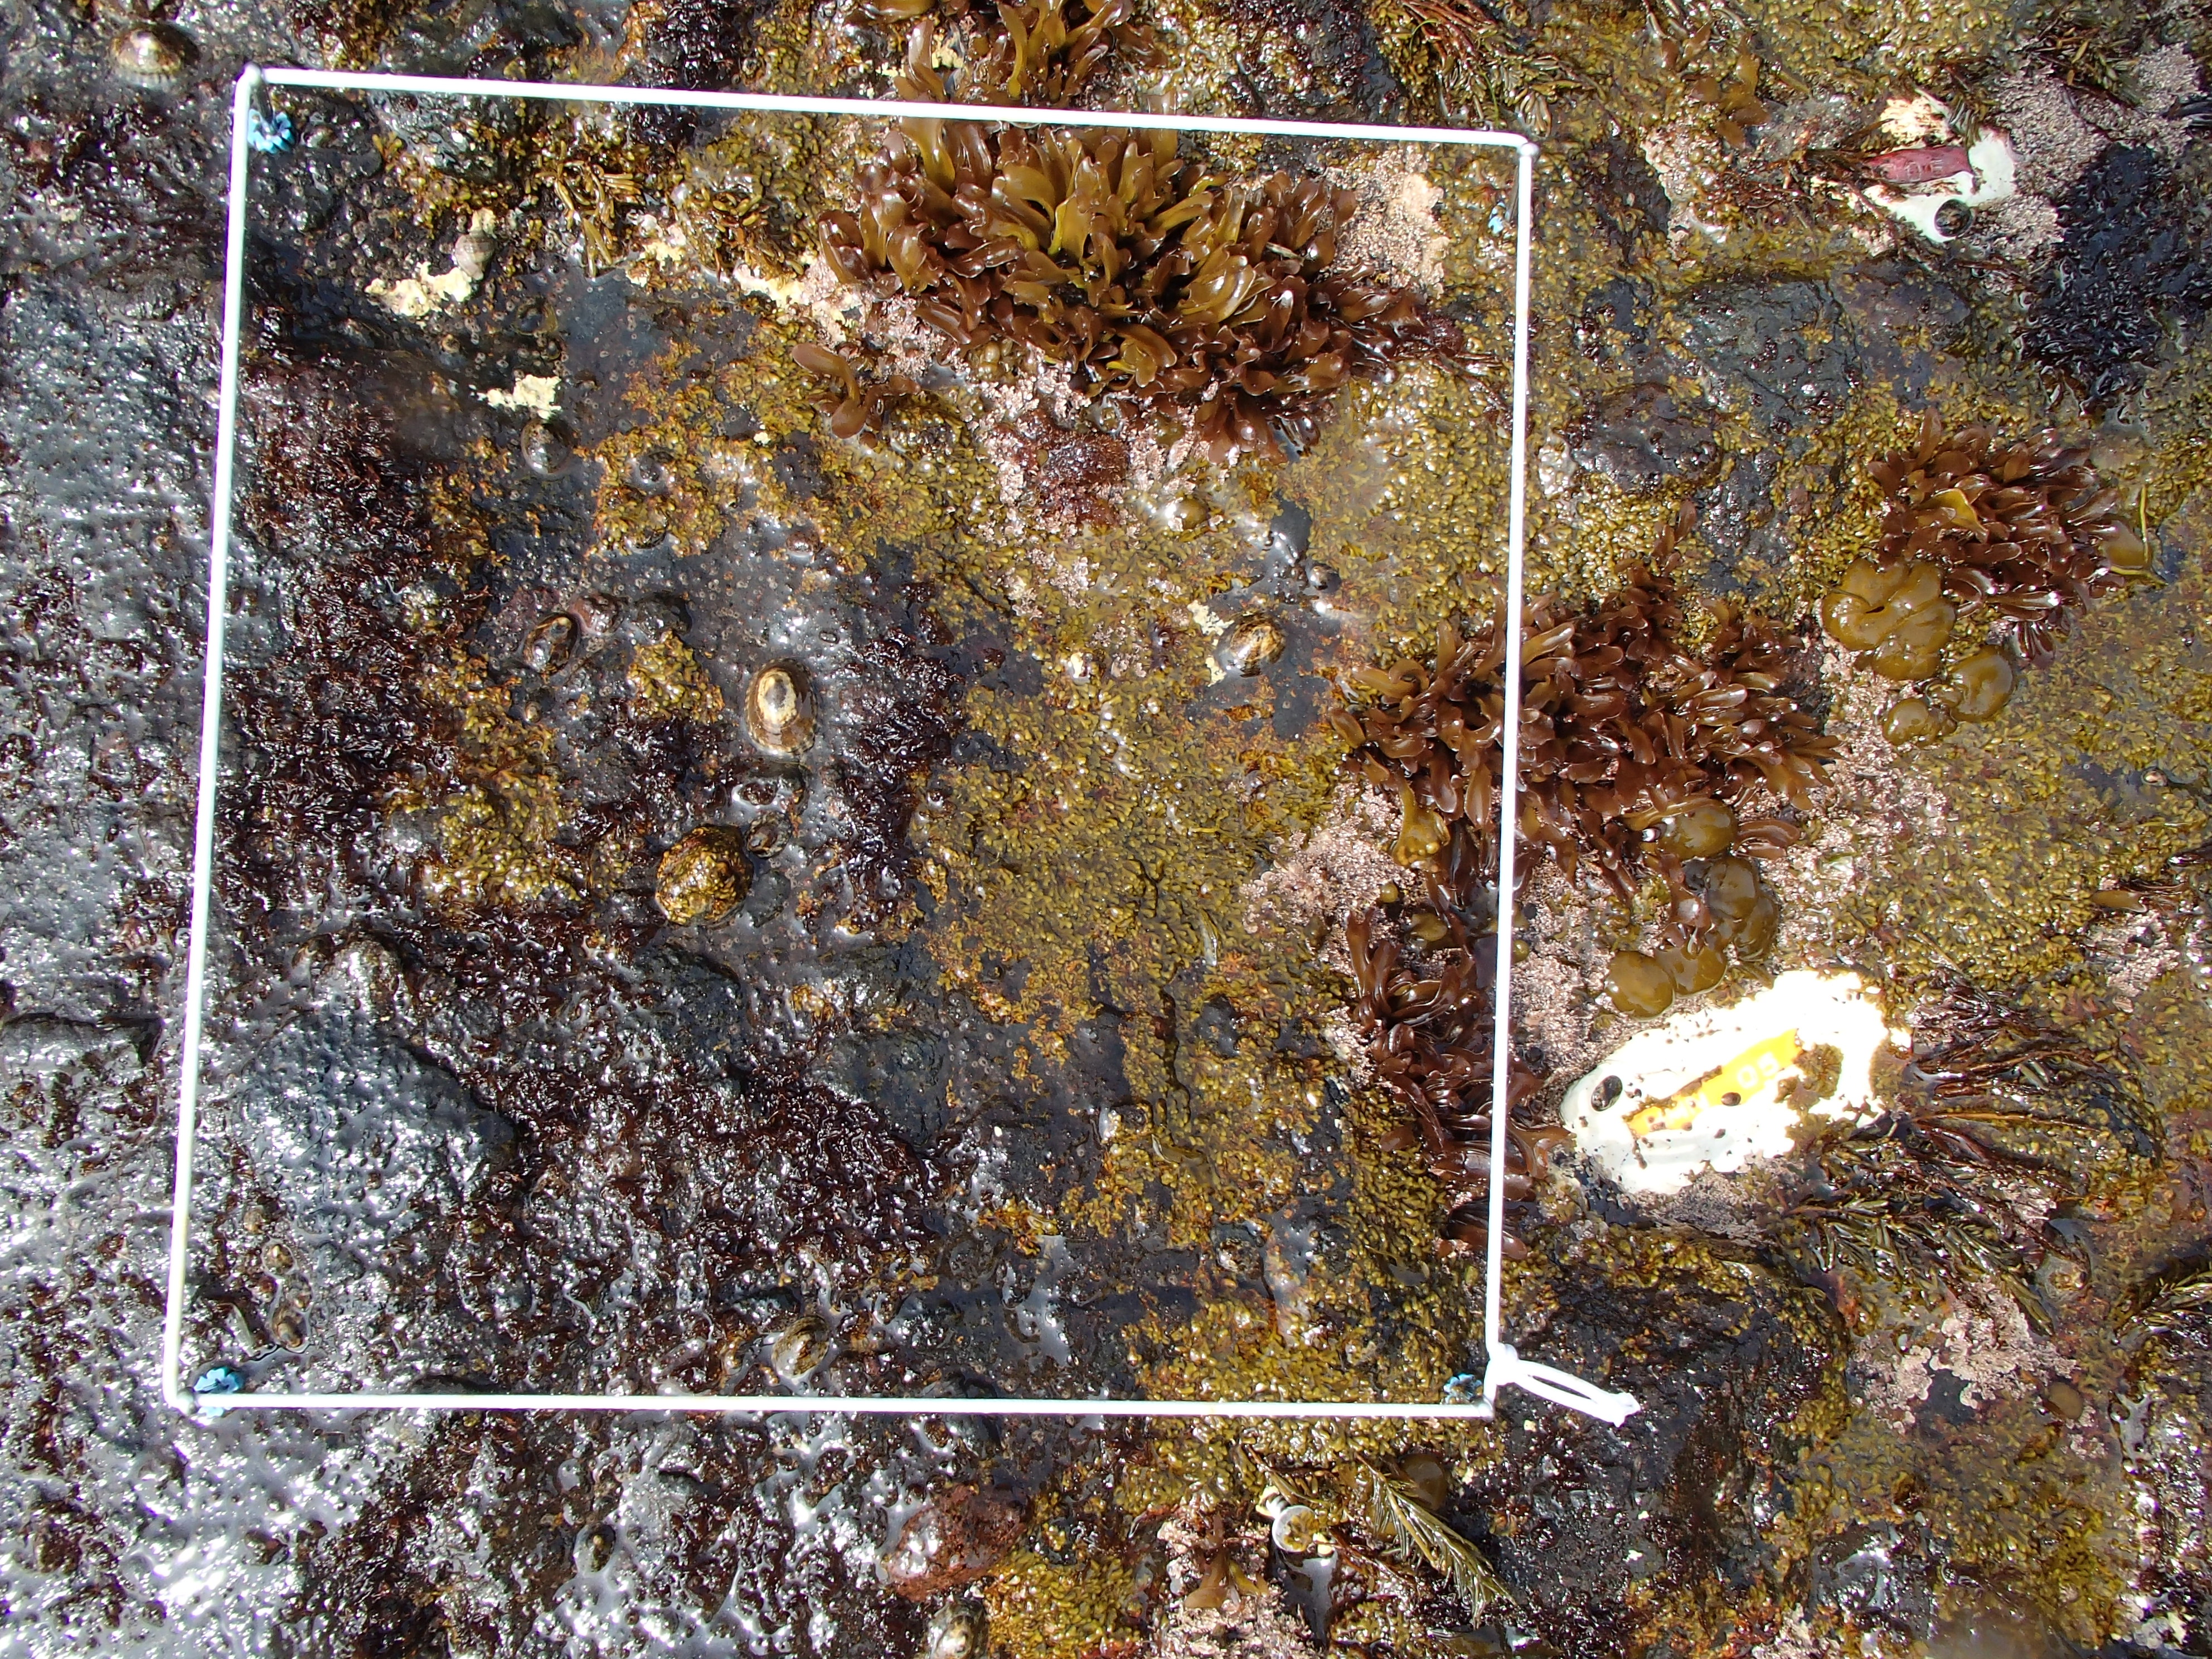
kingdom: Chromista
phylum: Ochrophyta
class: Phaeophyceae
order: Scytosiphonales
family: Scytosiphonaceae
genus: Analipus
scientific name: Analipus japonicus
